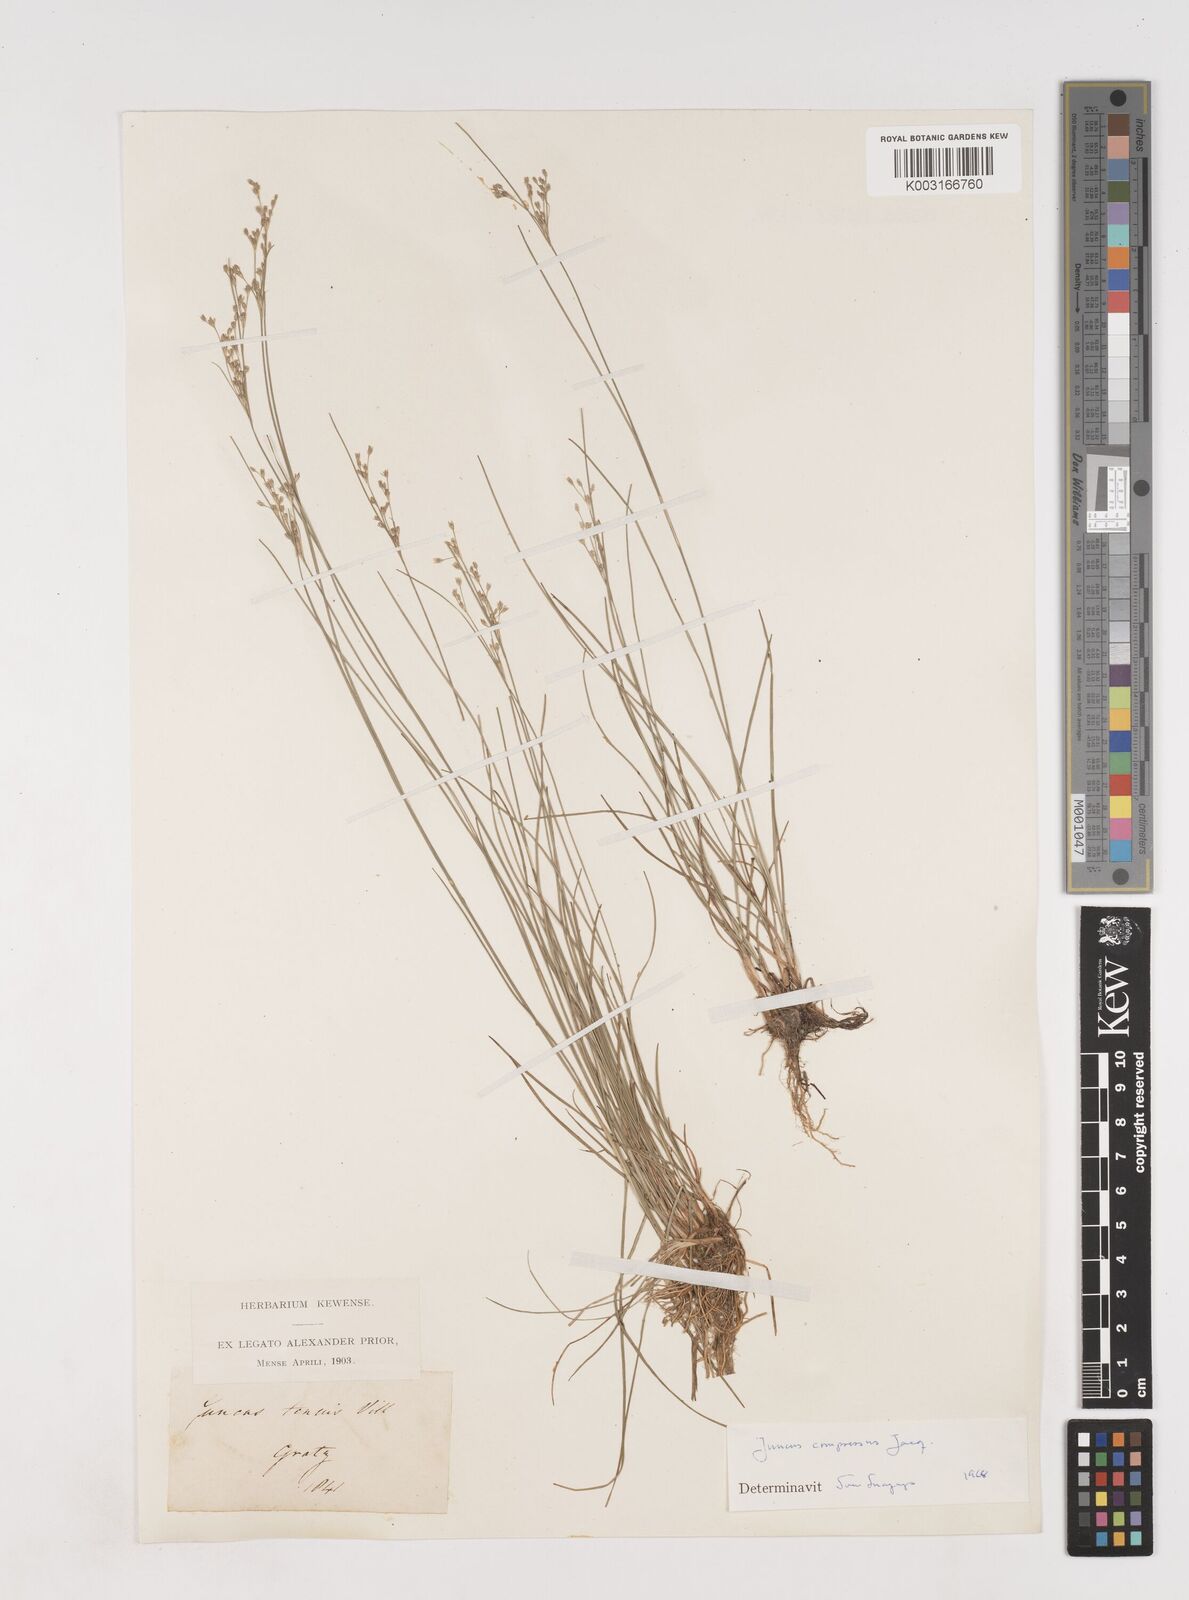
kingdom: Plantae
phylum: Tracheophyta
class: Liliopsida
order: Poales
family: Juncaceae
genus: Juncus
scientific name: Juncus
